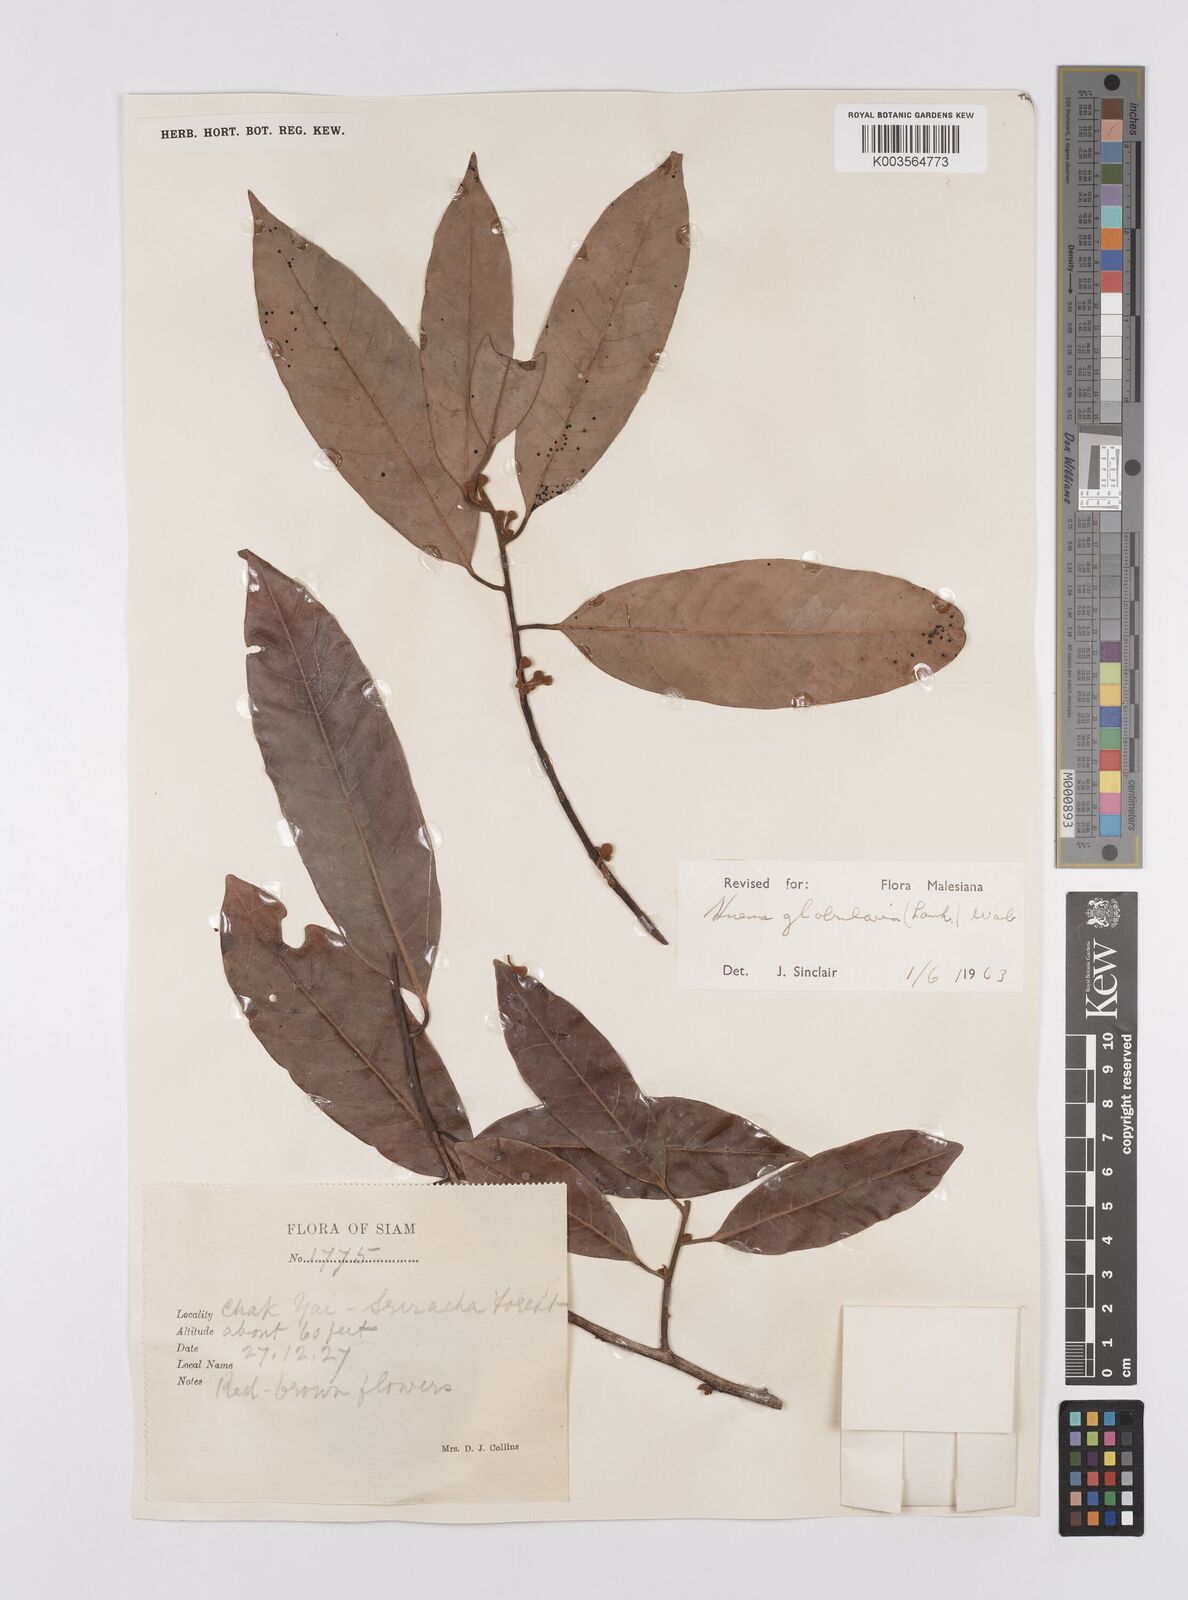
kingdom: Plantae
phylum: Tracheophyta
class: Magnoliopsida
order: Magnoliales
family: Myristicaceae
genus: Knema
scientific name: Knema globularia
